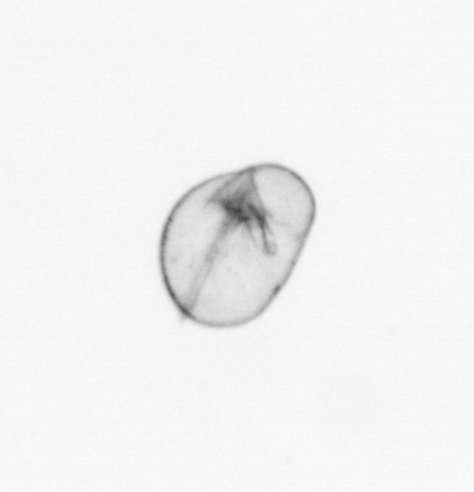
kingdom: Chromista
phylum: Myzozoa
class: Dinophyceae
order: Noctilucales
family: Noctilucaceae
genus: Noctiluca
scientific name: Noctiluca scintillans
